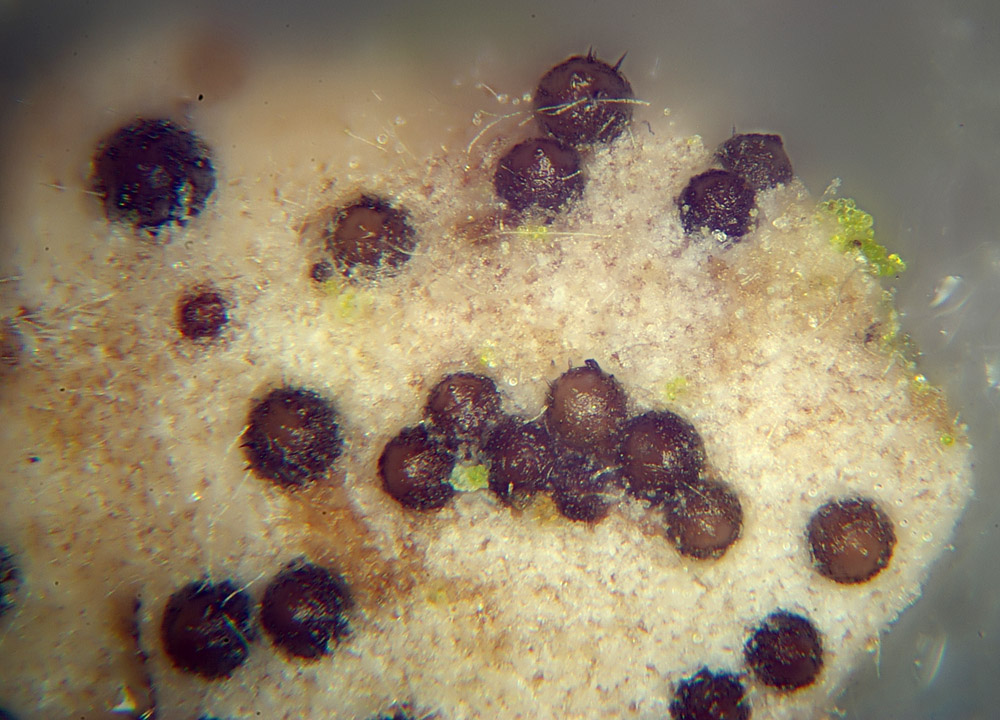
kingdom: Fungi
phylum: Ascomycota
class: Sordariomycetes
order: Hypocreales
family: Niessliaceae
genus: Trichosphaerella
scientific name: Trichosphaerella decipiens
